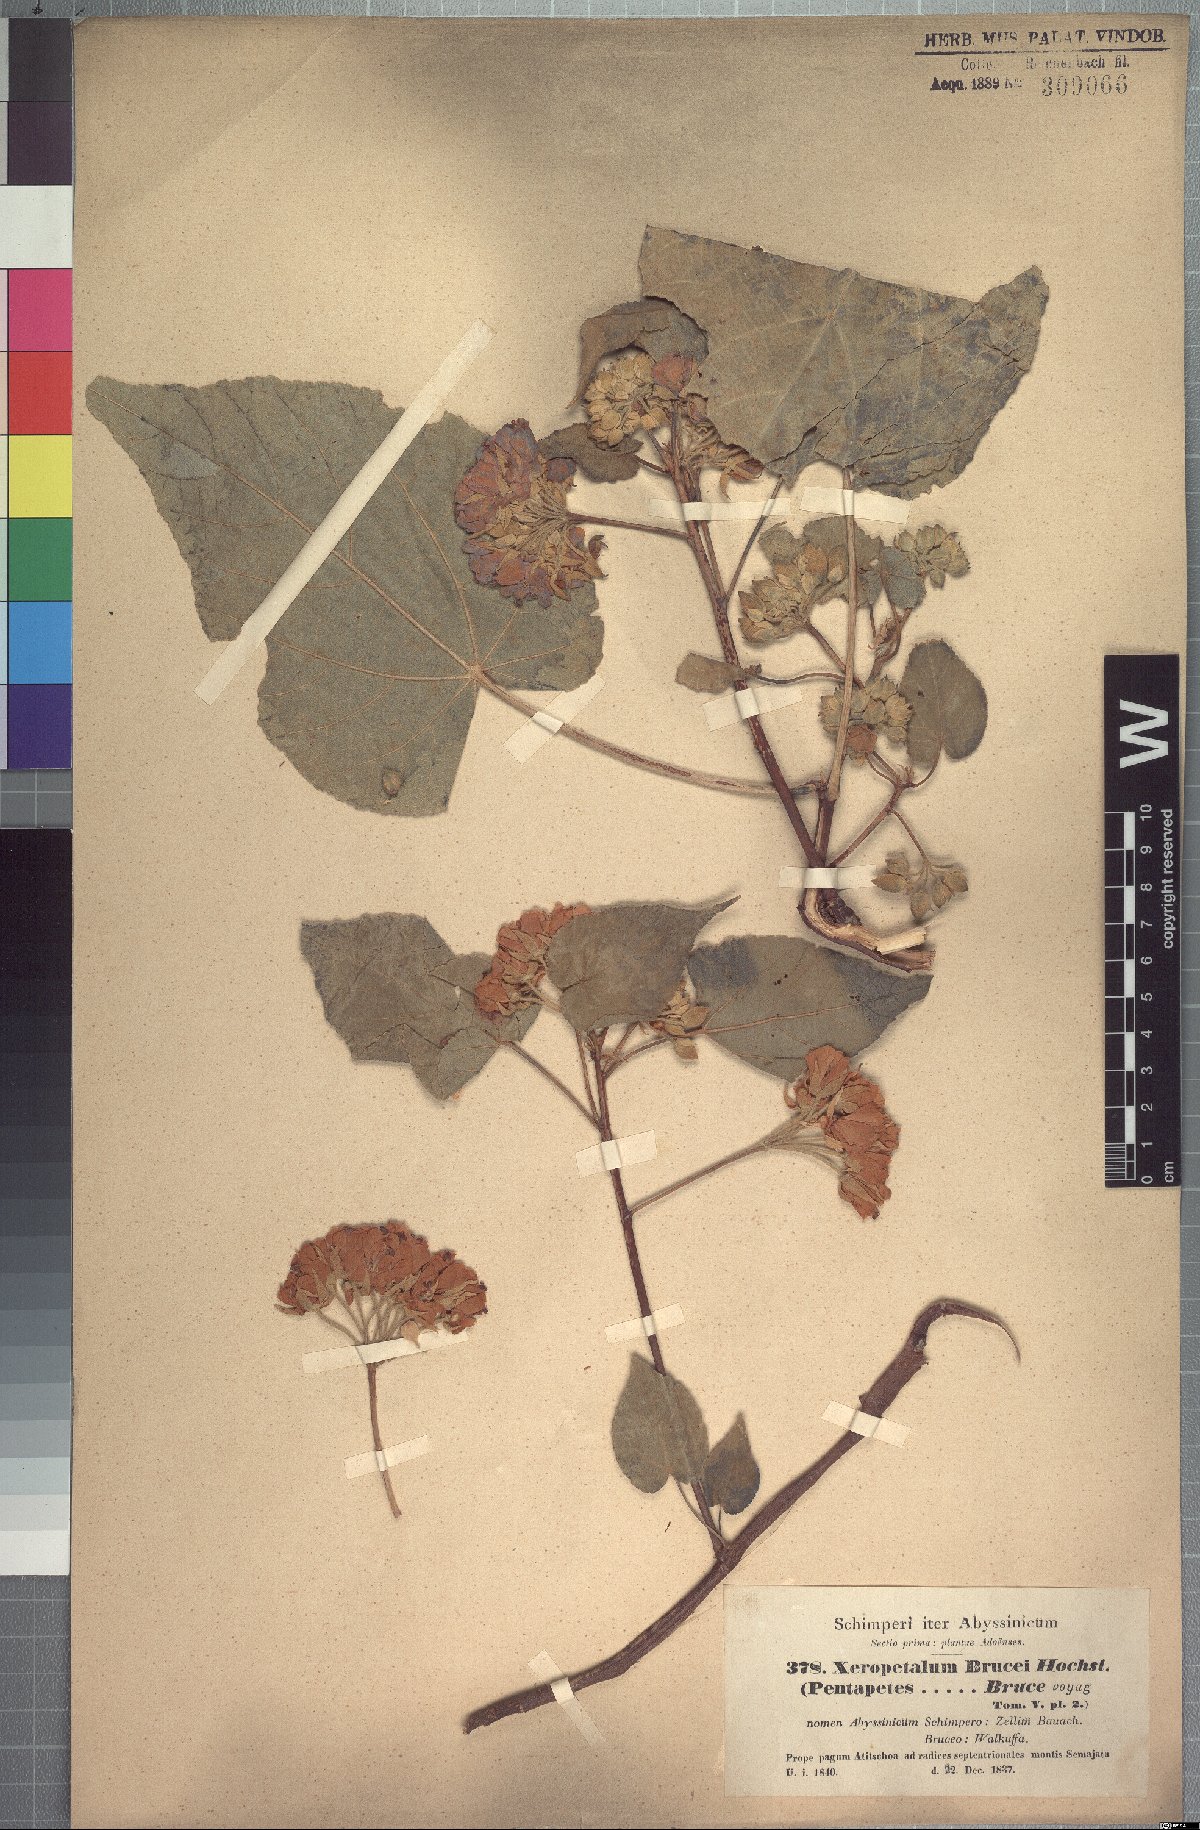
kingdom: Plantae
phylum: Tracheophyta
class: Magnoliopsida
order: Malvales
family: Malvaceae
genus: Dombeya
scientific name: Dombeya torrida
